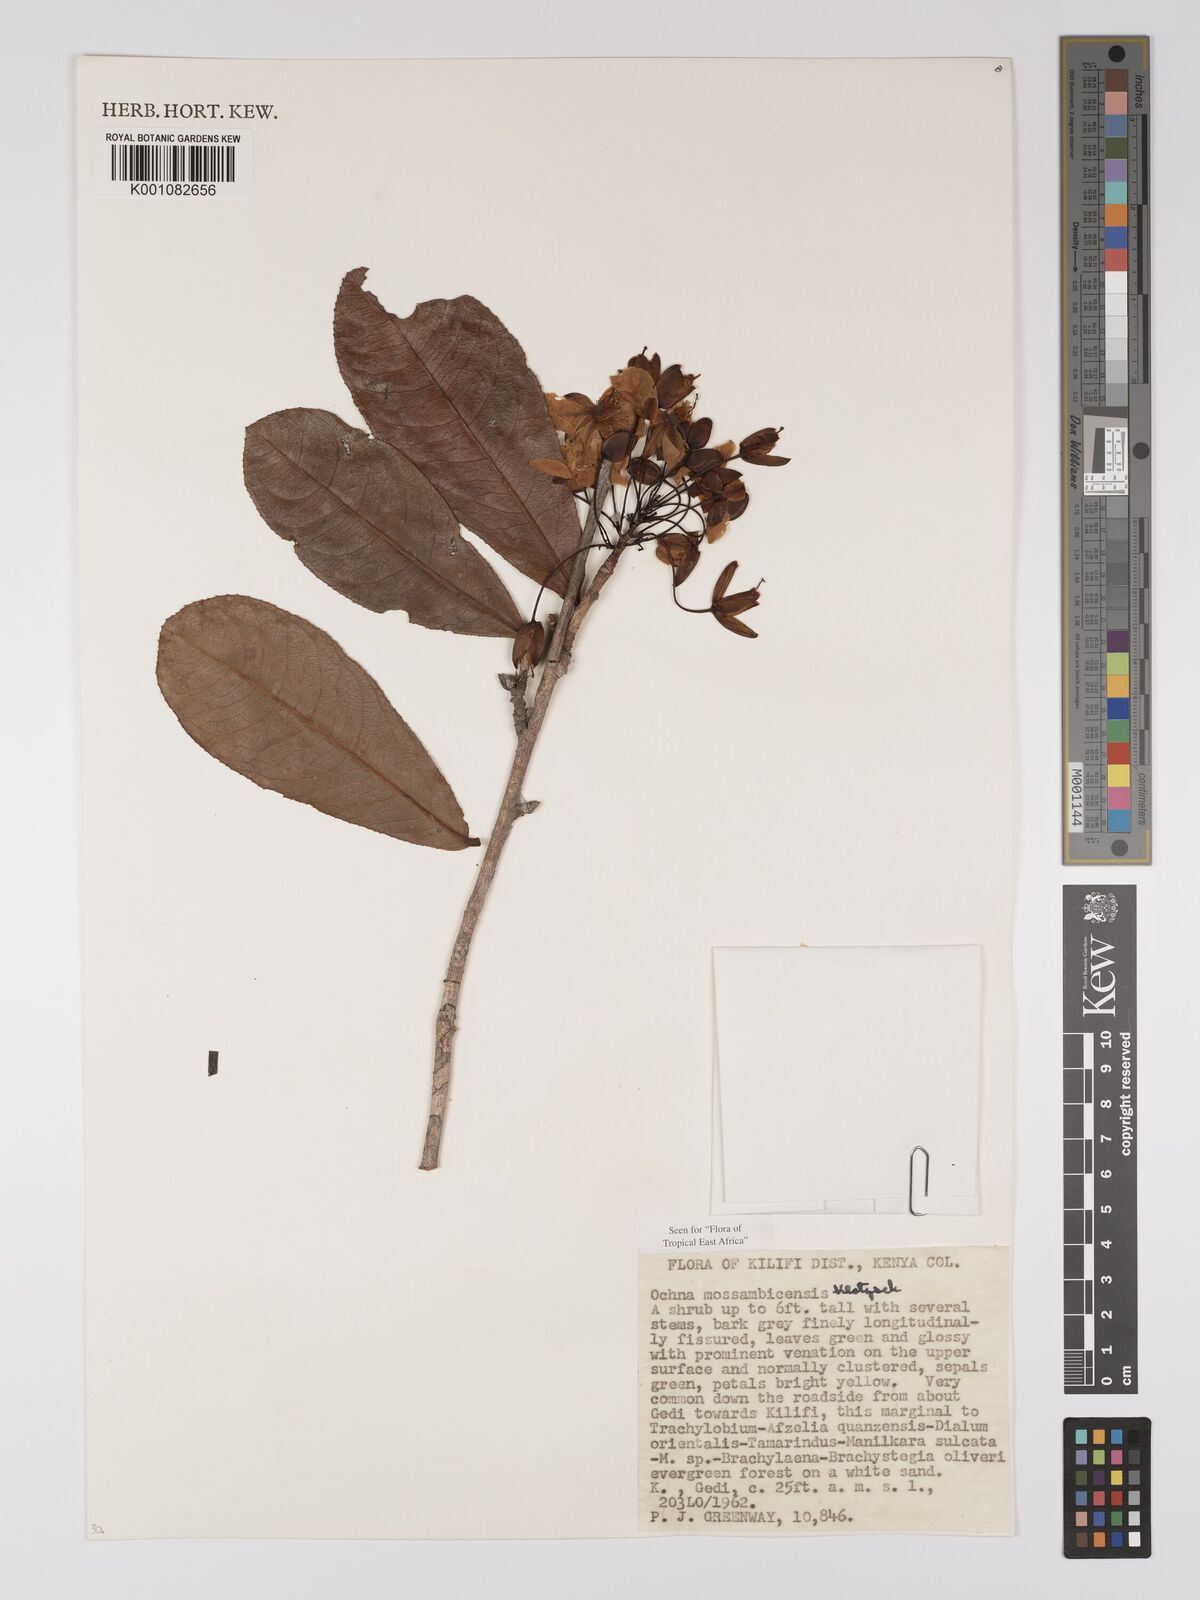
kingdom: Plantae
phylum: Tracheophyta
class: Magnoliopsida
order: Malpighiales
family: Ochnaceae
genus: Ochna
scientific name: Ochna atropurpurea
